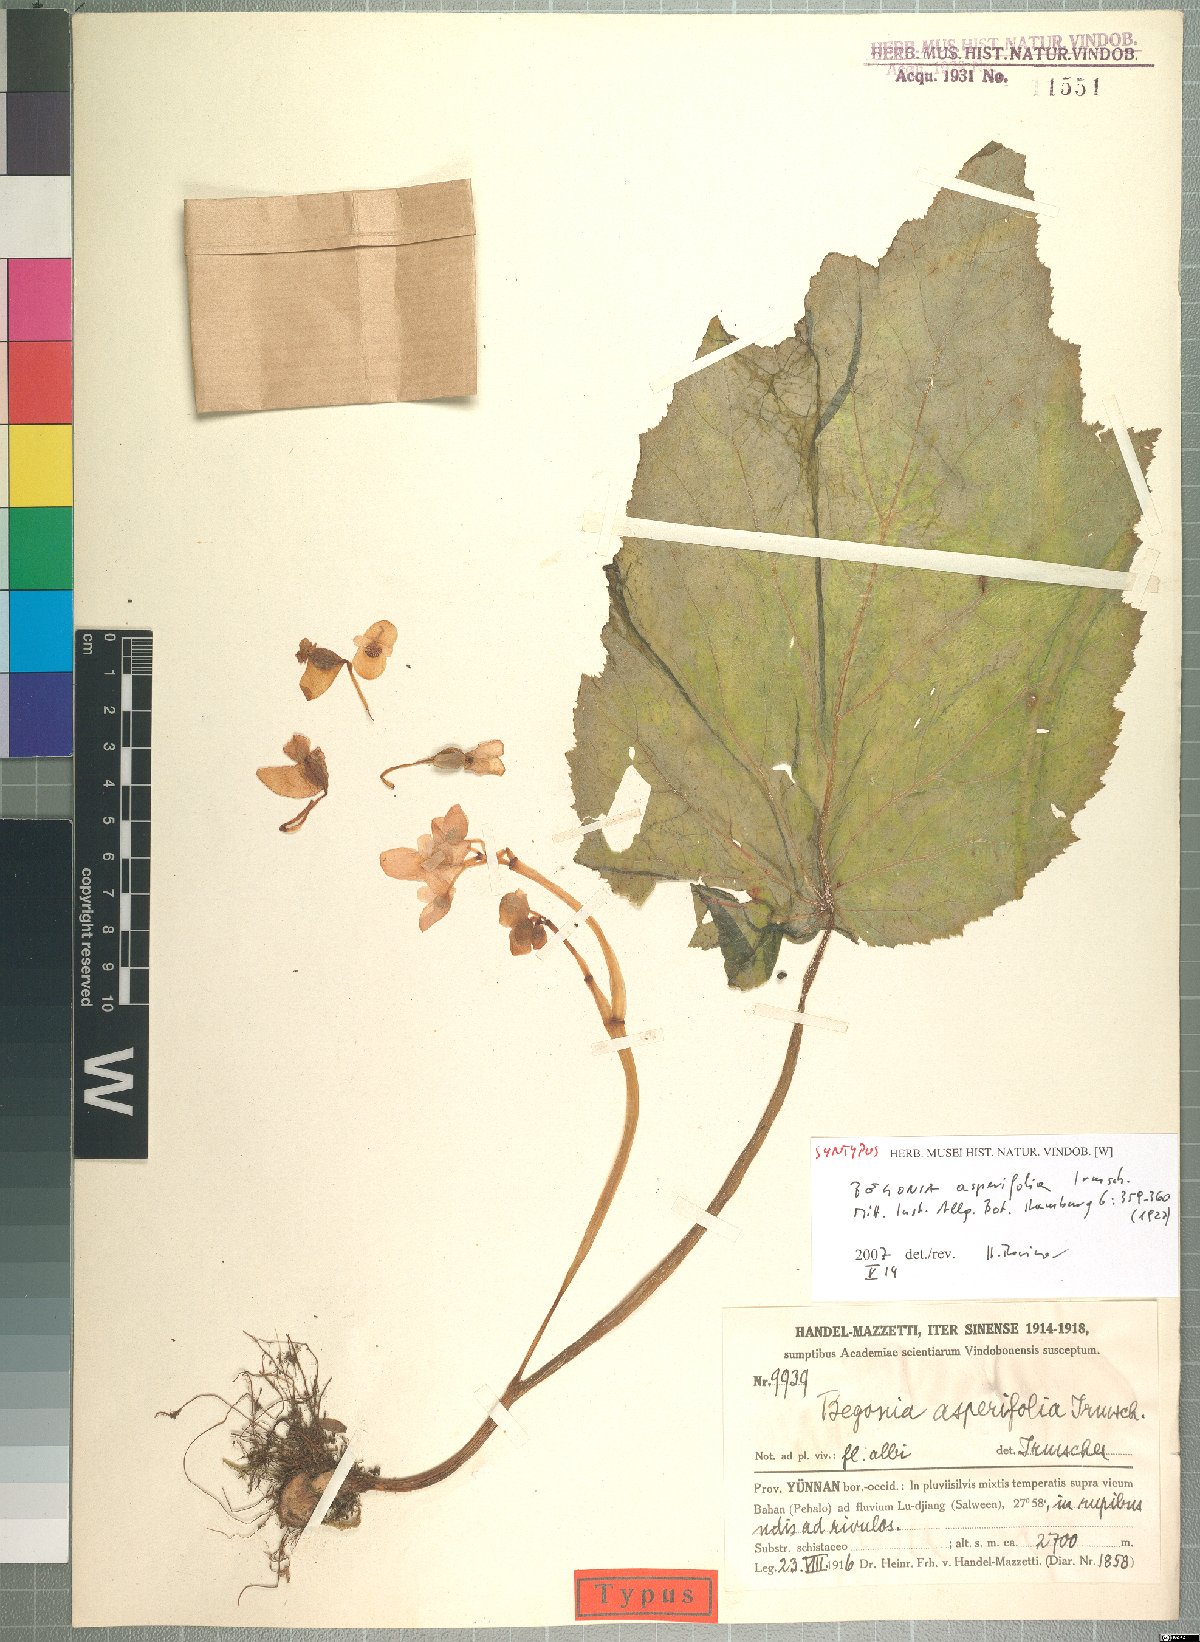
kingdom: Plantae
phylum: Tracheophyta
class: Magnoliopsida
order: Cucurbitales
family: Begoniaceae
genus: Begonia
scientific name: Begonia asperifolia
